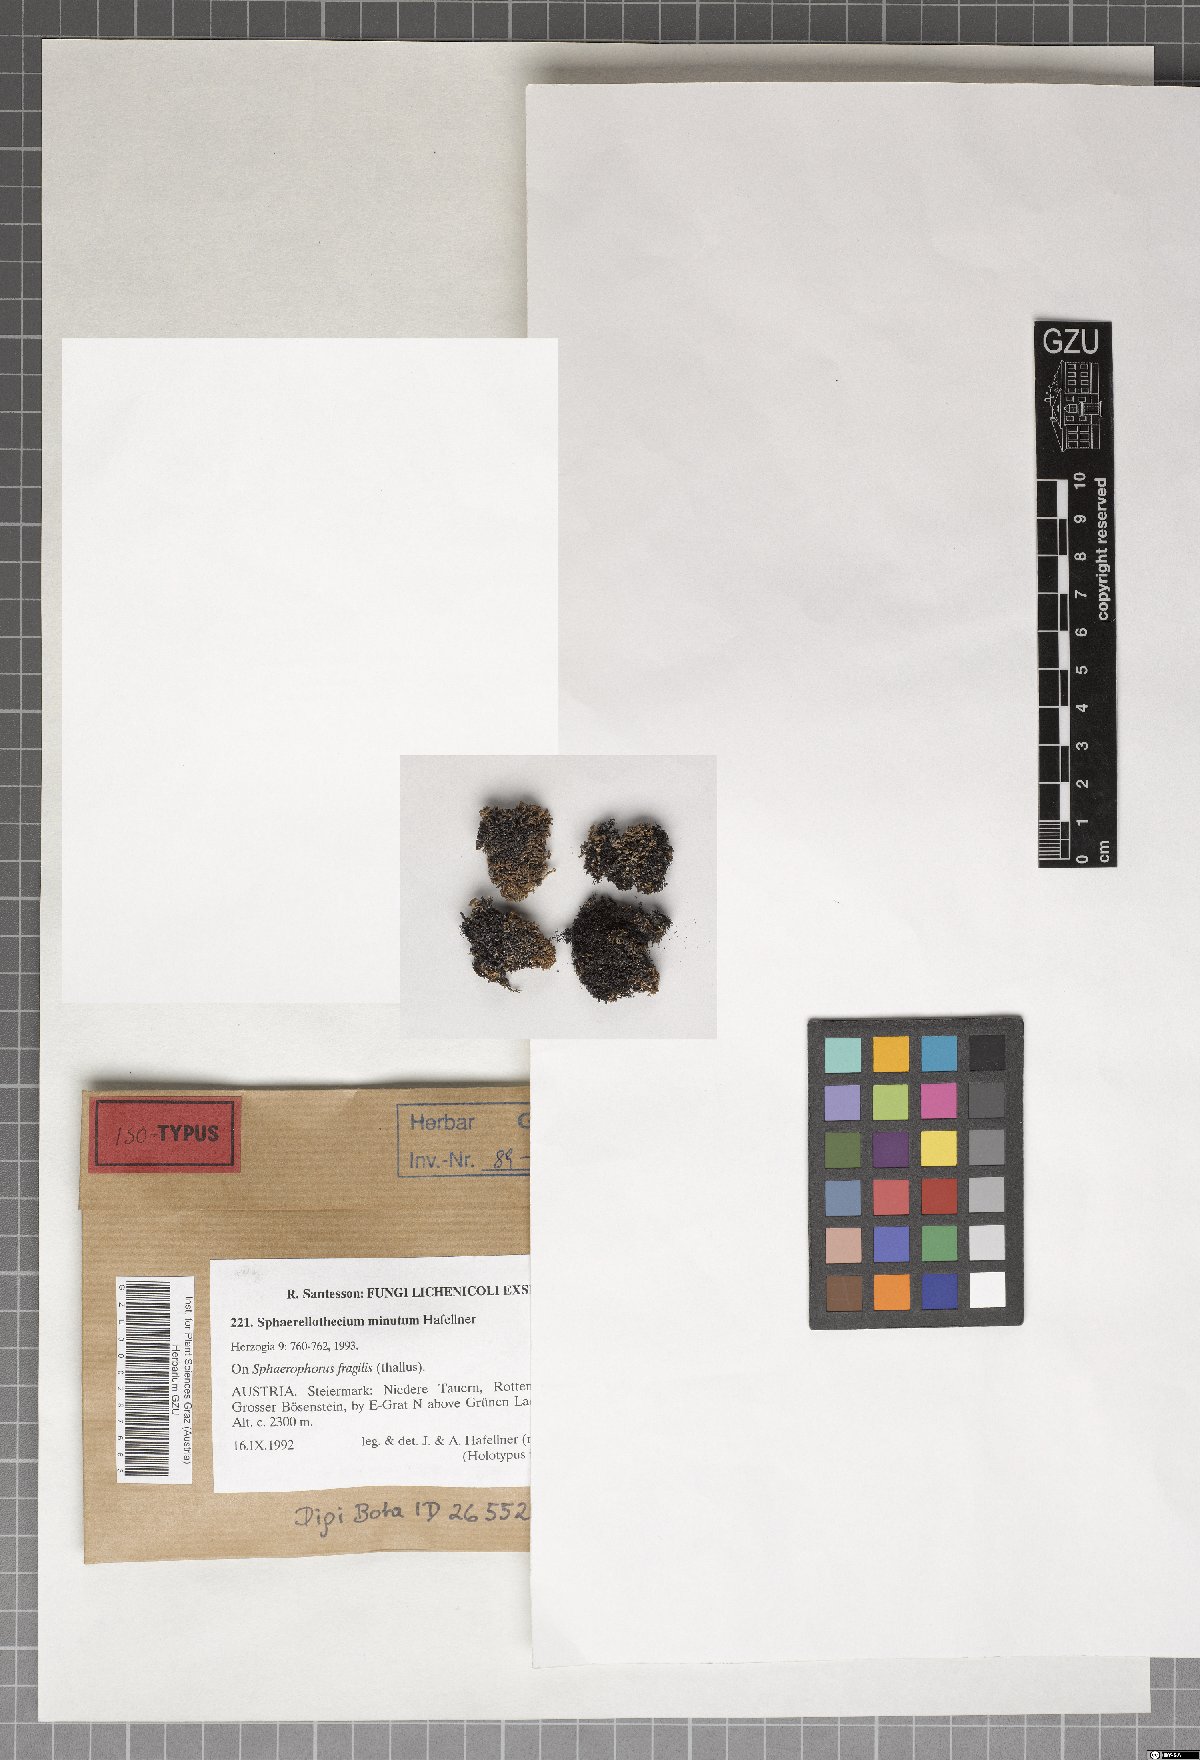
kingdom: Fungi
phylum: Ascomycota
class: Dothideomycetes
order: Mycosphaerellales
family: Mycosphaerellaceae
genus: Sphaerellothecium
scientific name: Sphaerellothecium minutum
